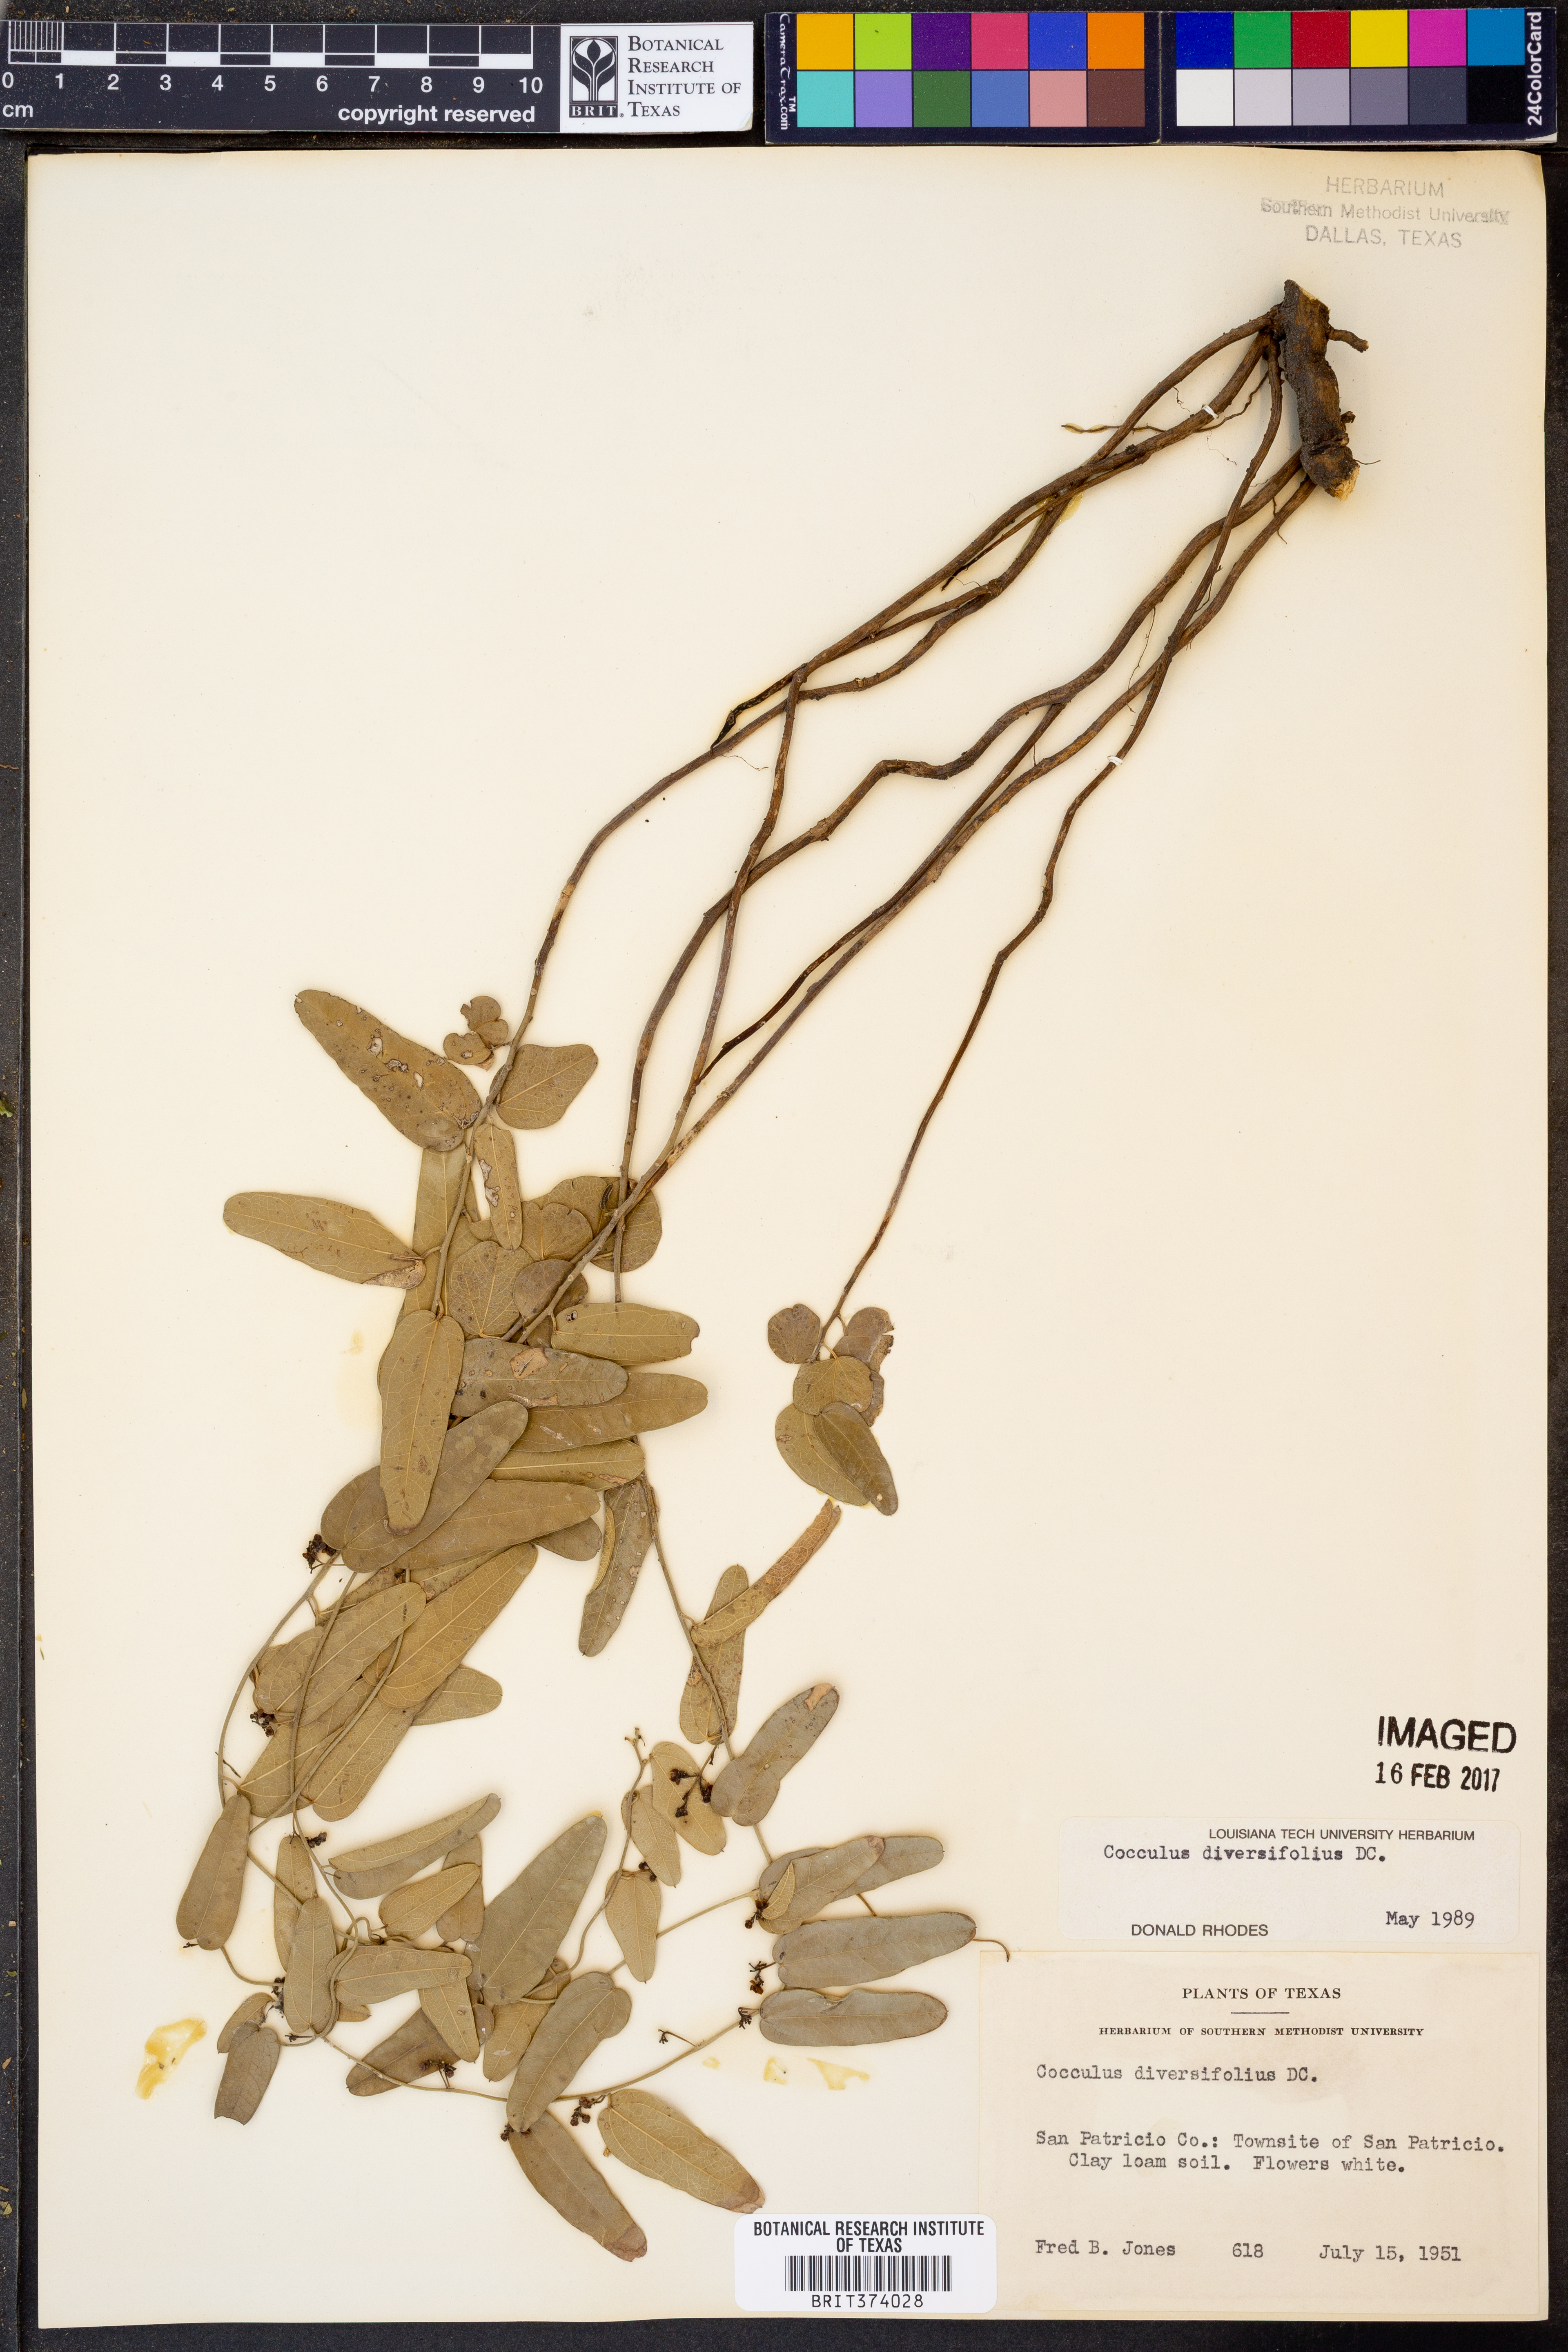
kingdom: Plantae
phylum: Tracheophyta
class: Magnoliopsida
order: Ranunculales
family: Menispermaceae
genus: Cocculus
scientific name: Cocculus diversifolius
